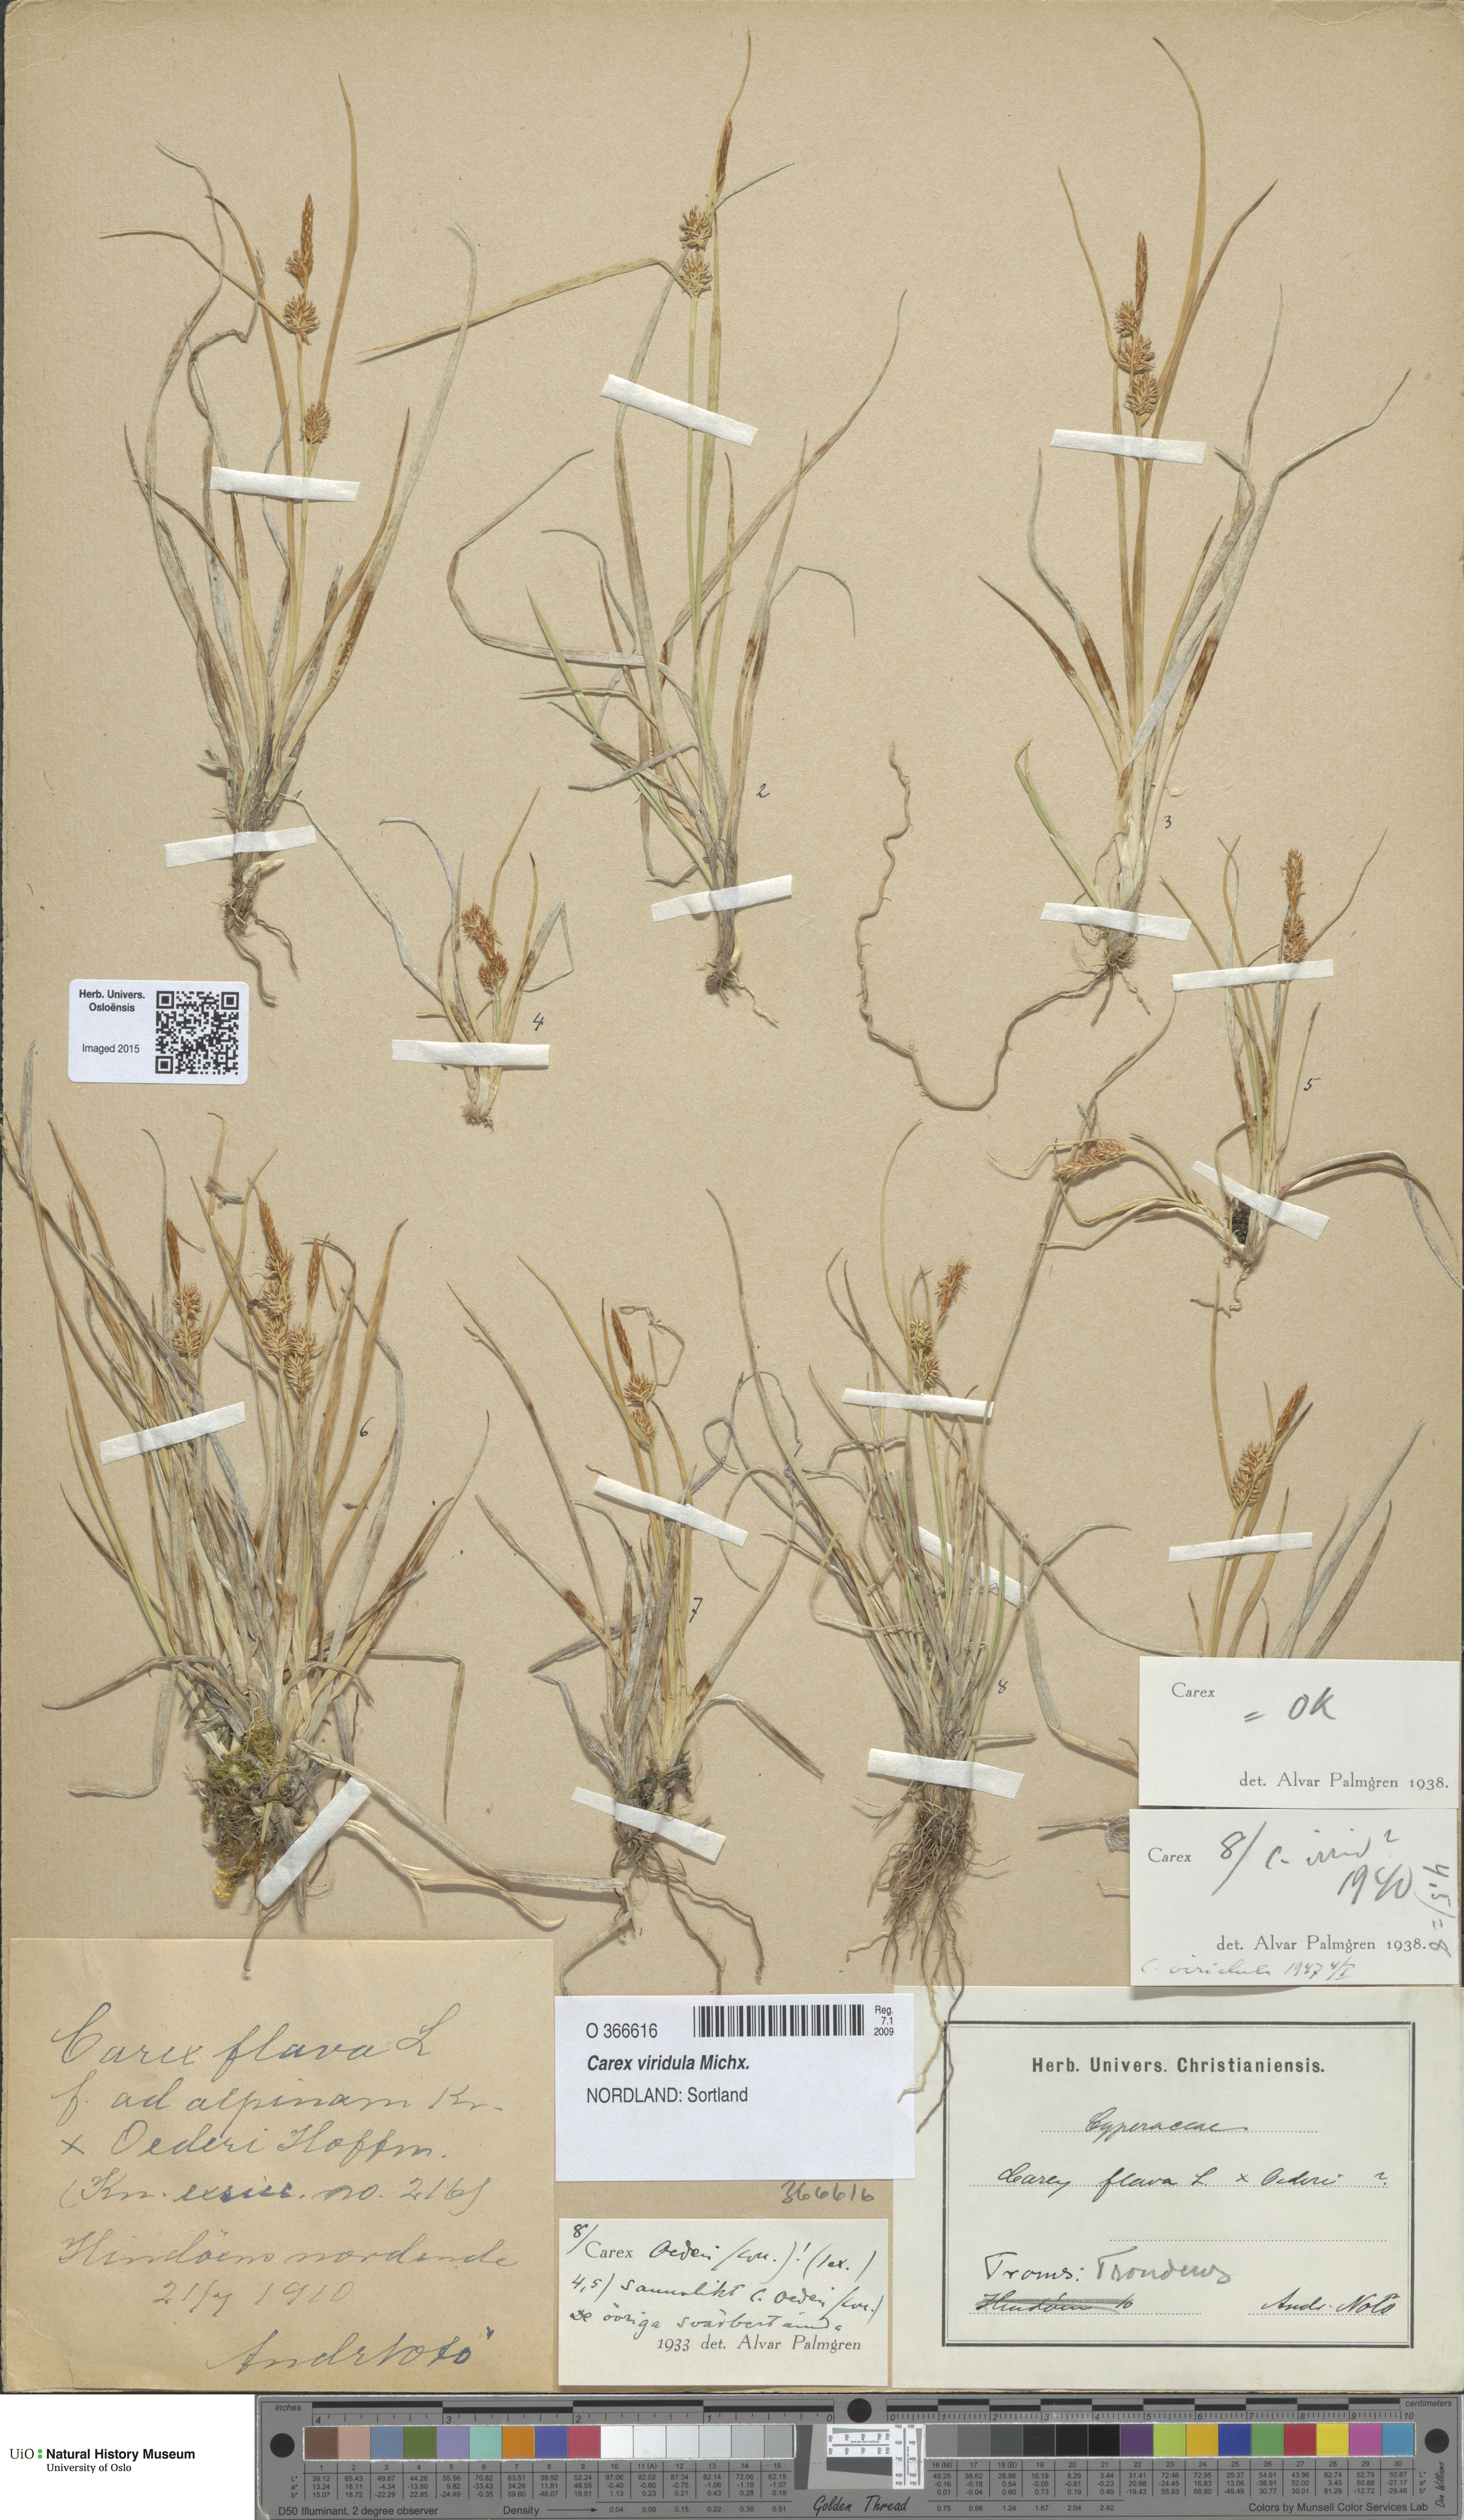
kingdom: Plantae
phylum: Tracheophyta
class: Liliopsida
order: Poales
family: Cyperaceae
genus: Carex
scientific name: Carex oederi
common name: Common & small-fruited yellow-sedge
